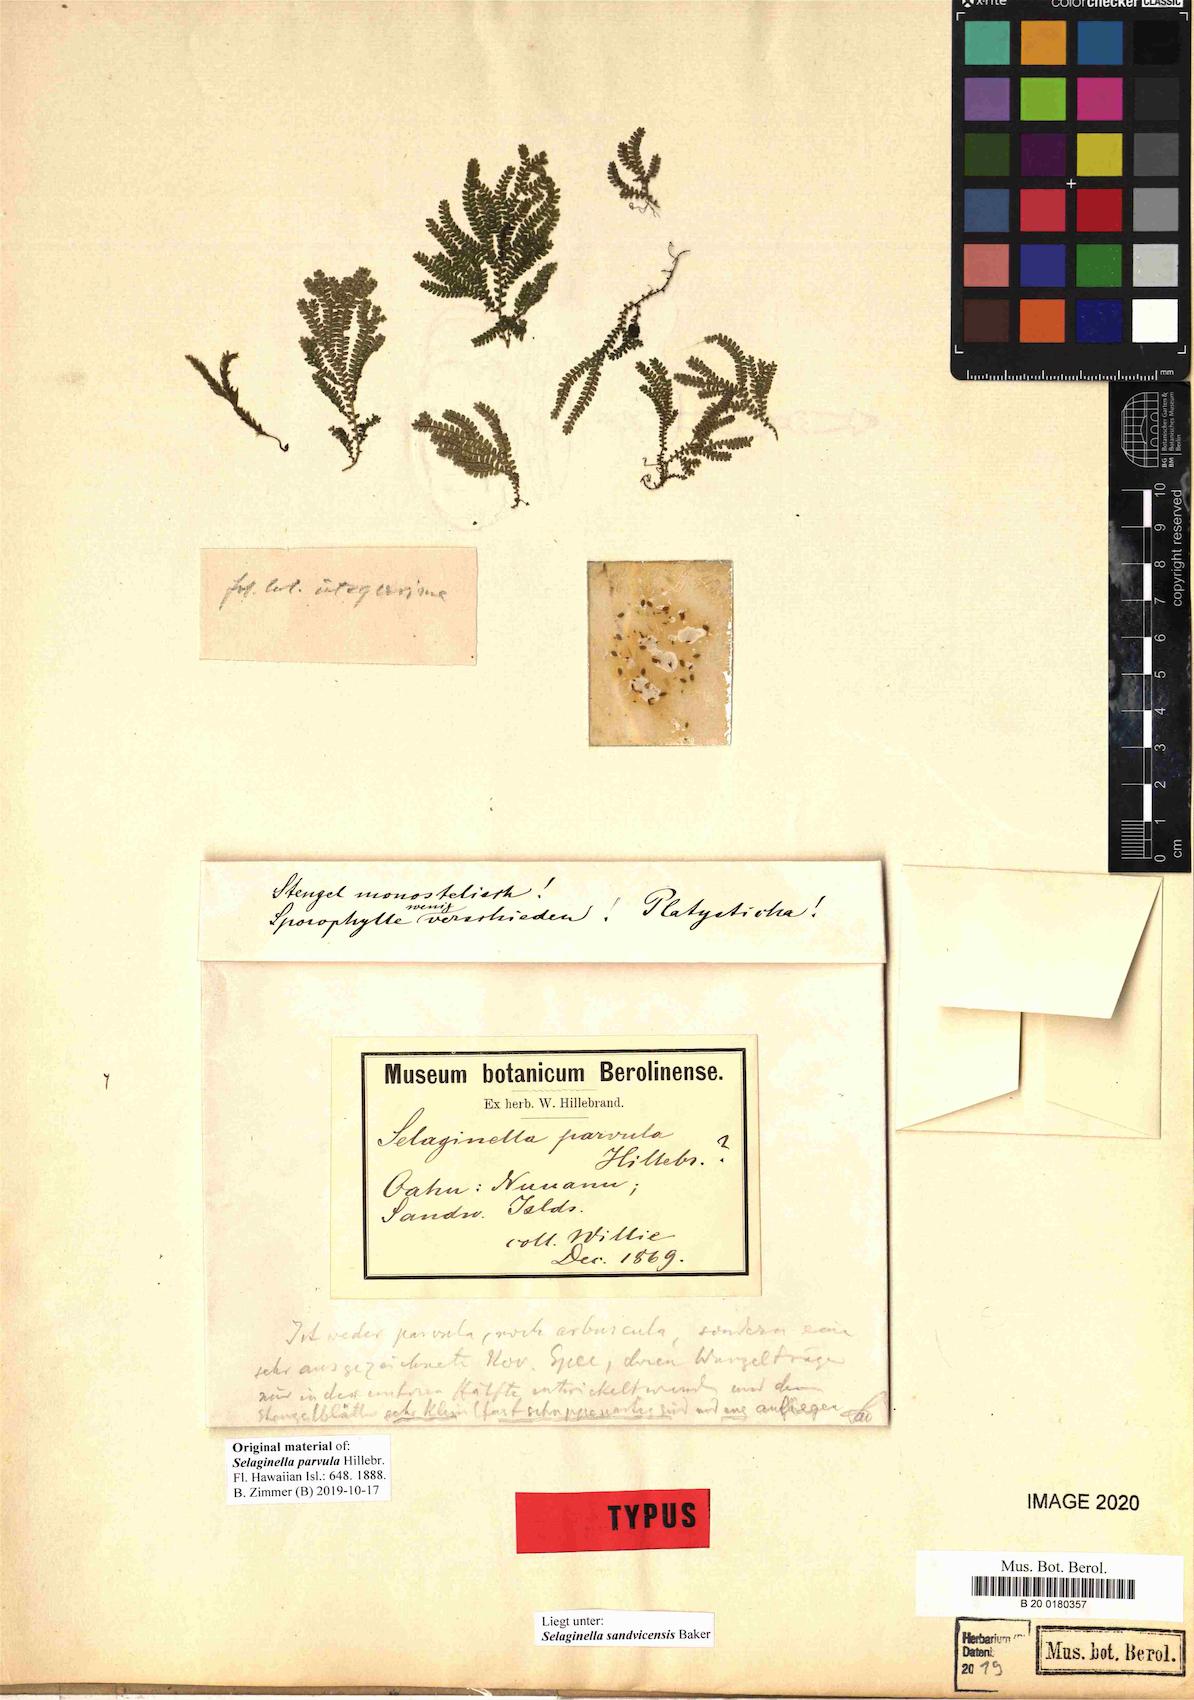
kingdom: Plantae
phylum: Tracheophyta
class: Lycopodiopsida
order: Selaginellales
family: Selaginellaceae
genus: Selaginella
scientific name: Selaginella sandvicensis
